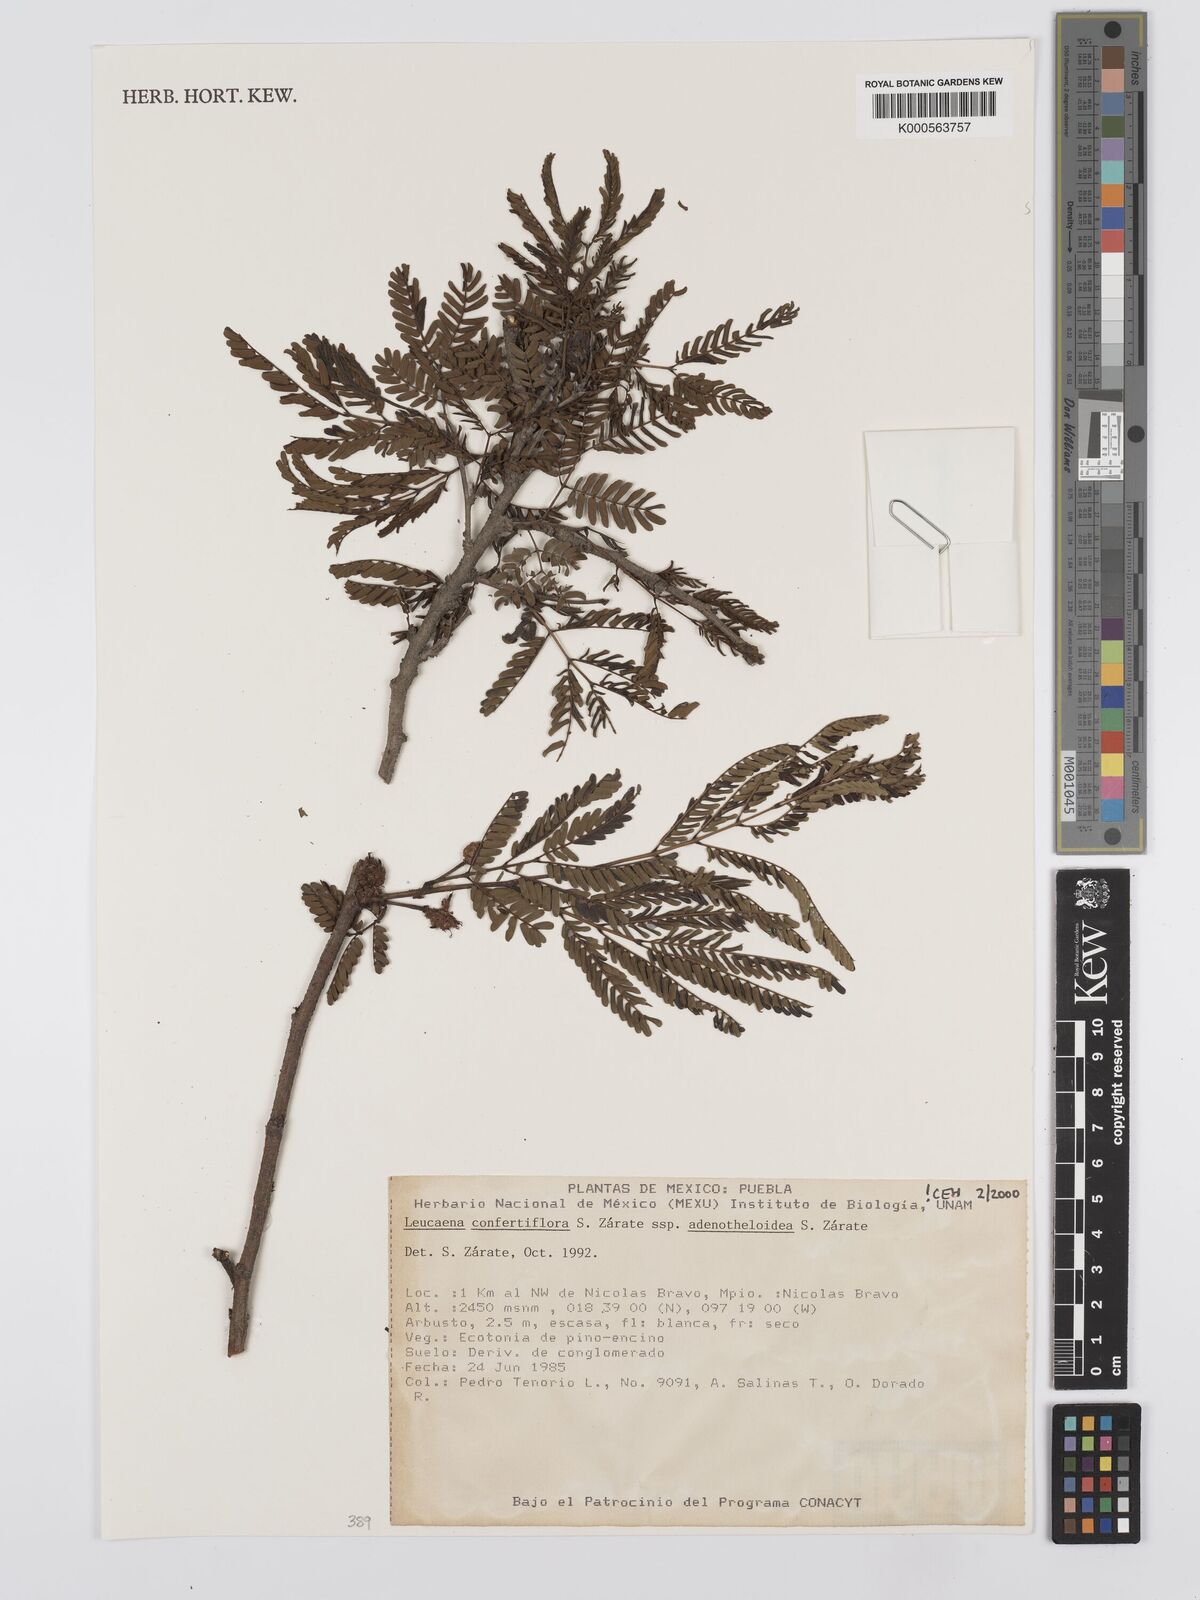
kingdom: Plantae
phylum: Tracheophyta
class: Magnoliopsida
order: Fabales
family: Fabaceae
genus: Leucaena
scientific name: Leucaena
